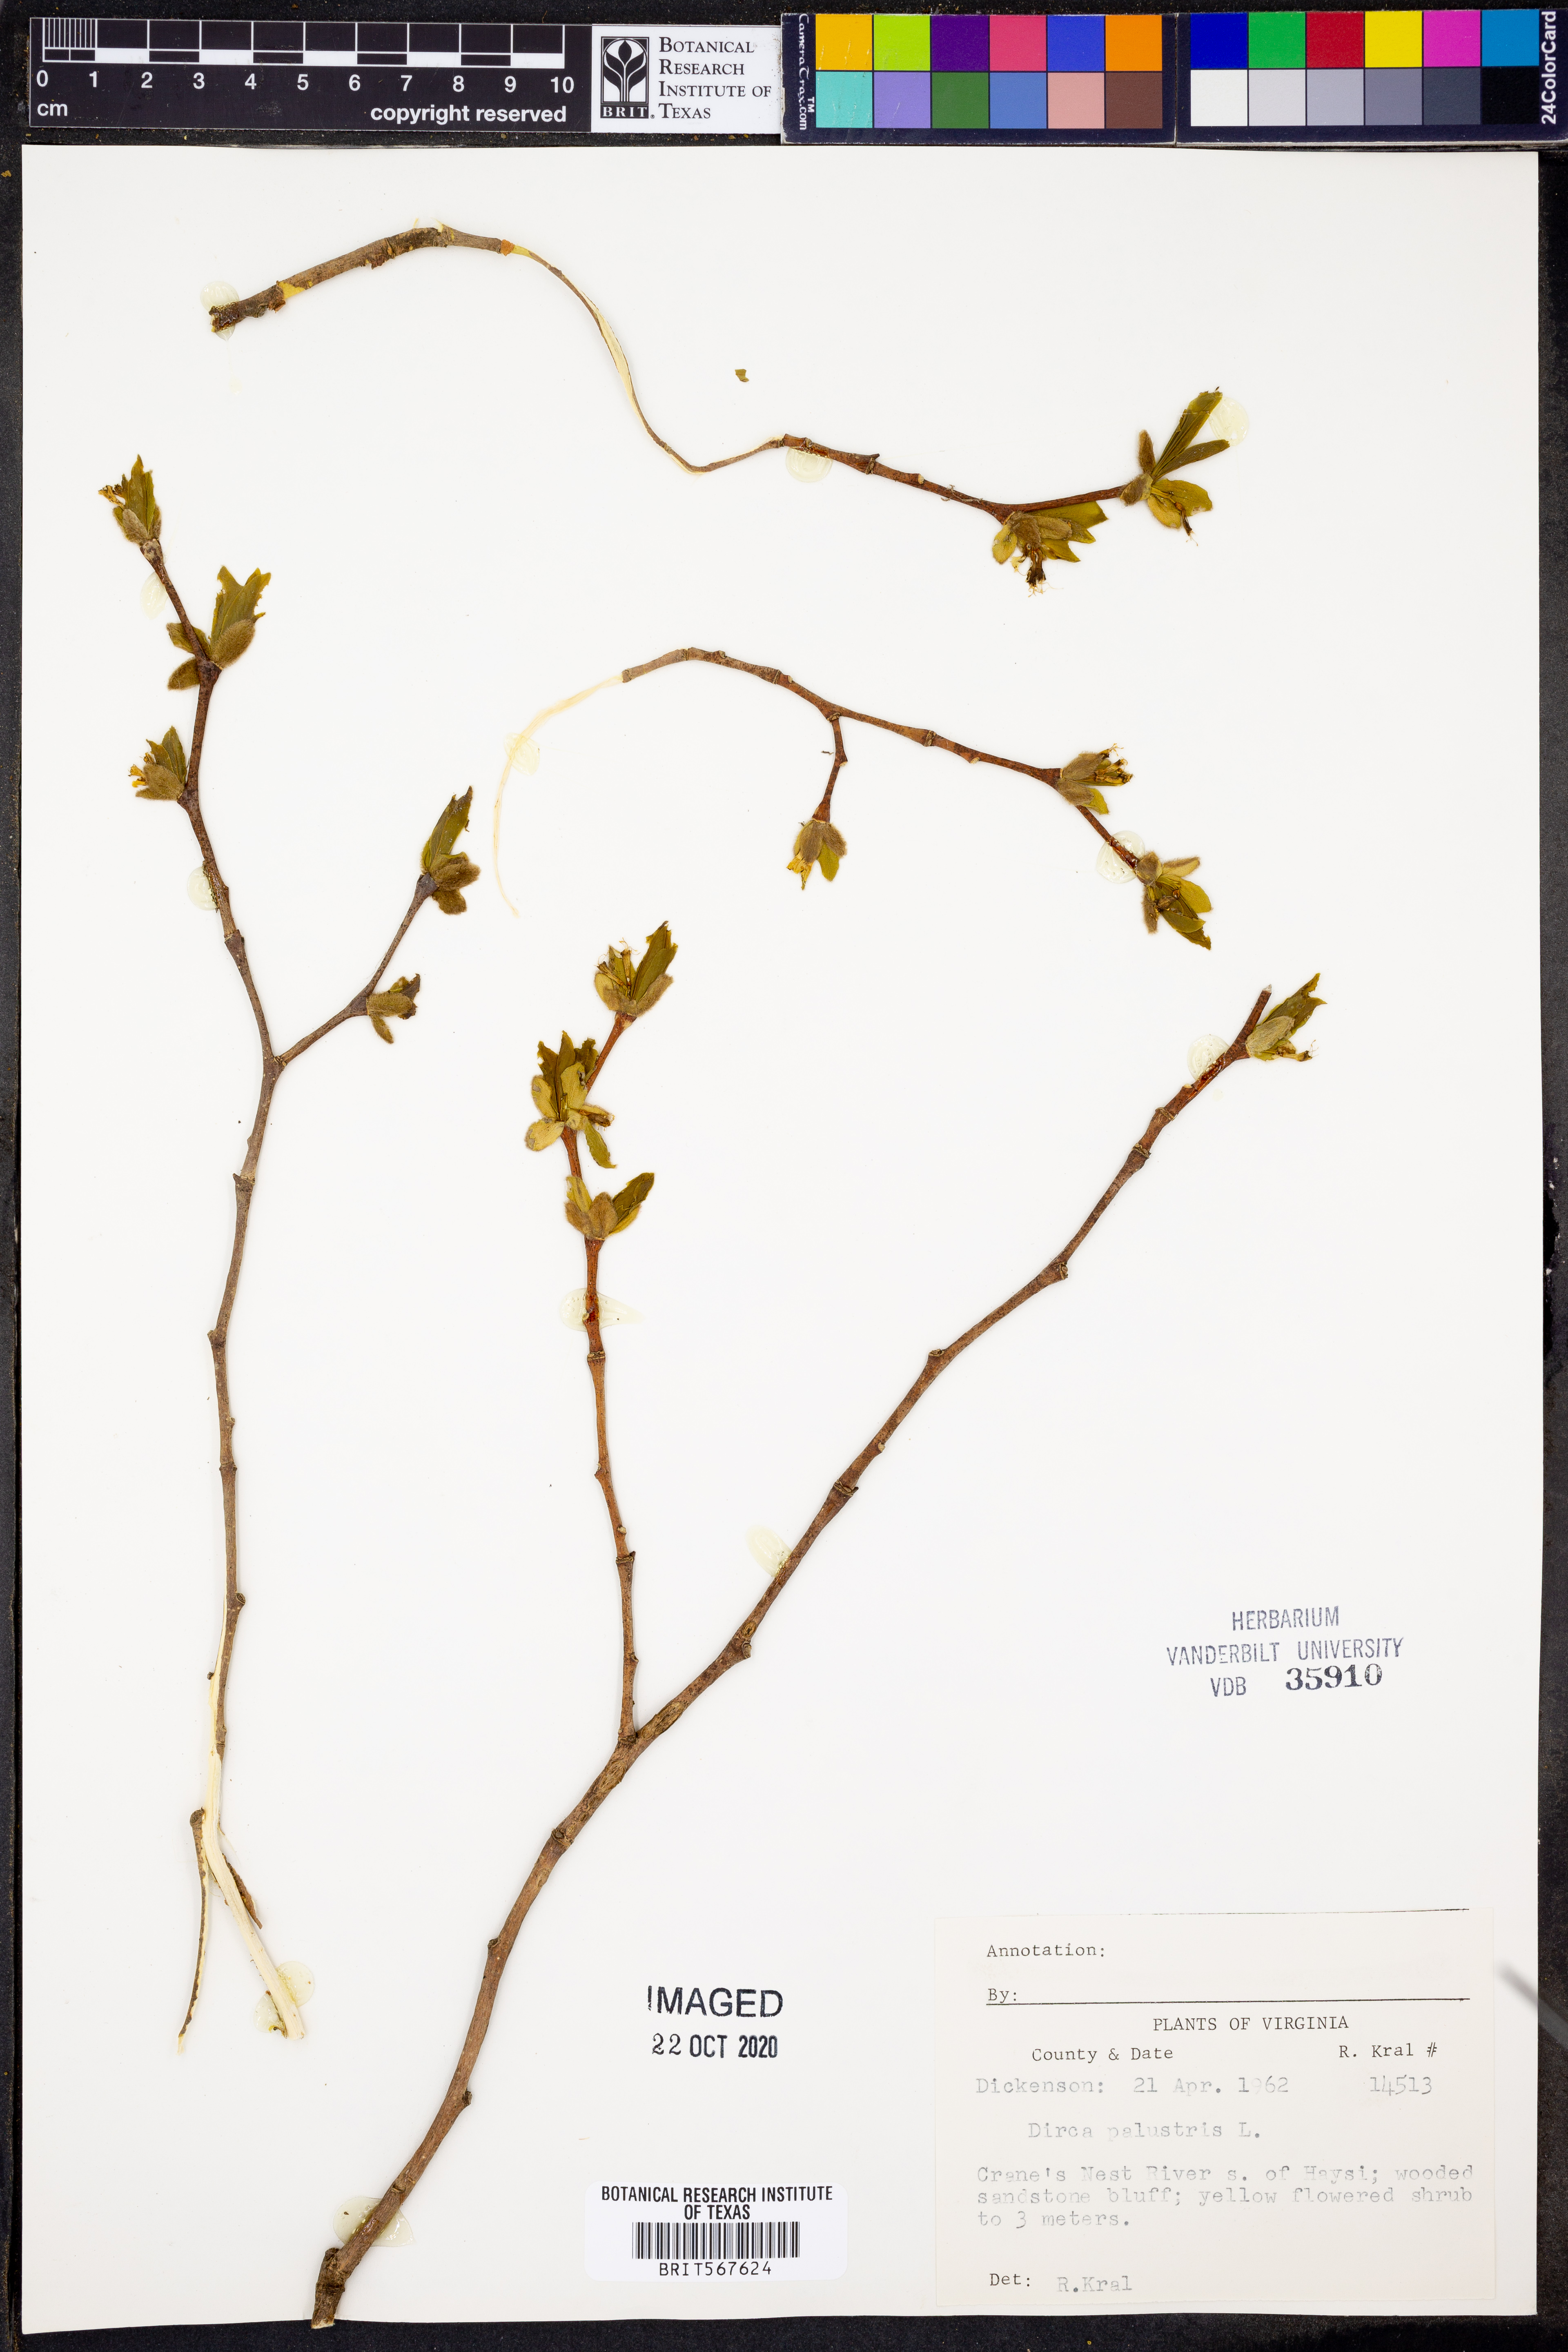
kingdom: Plantae
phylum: Tracheophyta
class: Magnoliopsida
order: Malvales
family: Thymelaeaceae
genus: Dirca
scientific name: Dirca palustris
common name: Leatherwood
